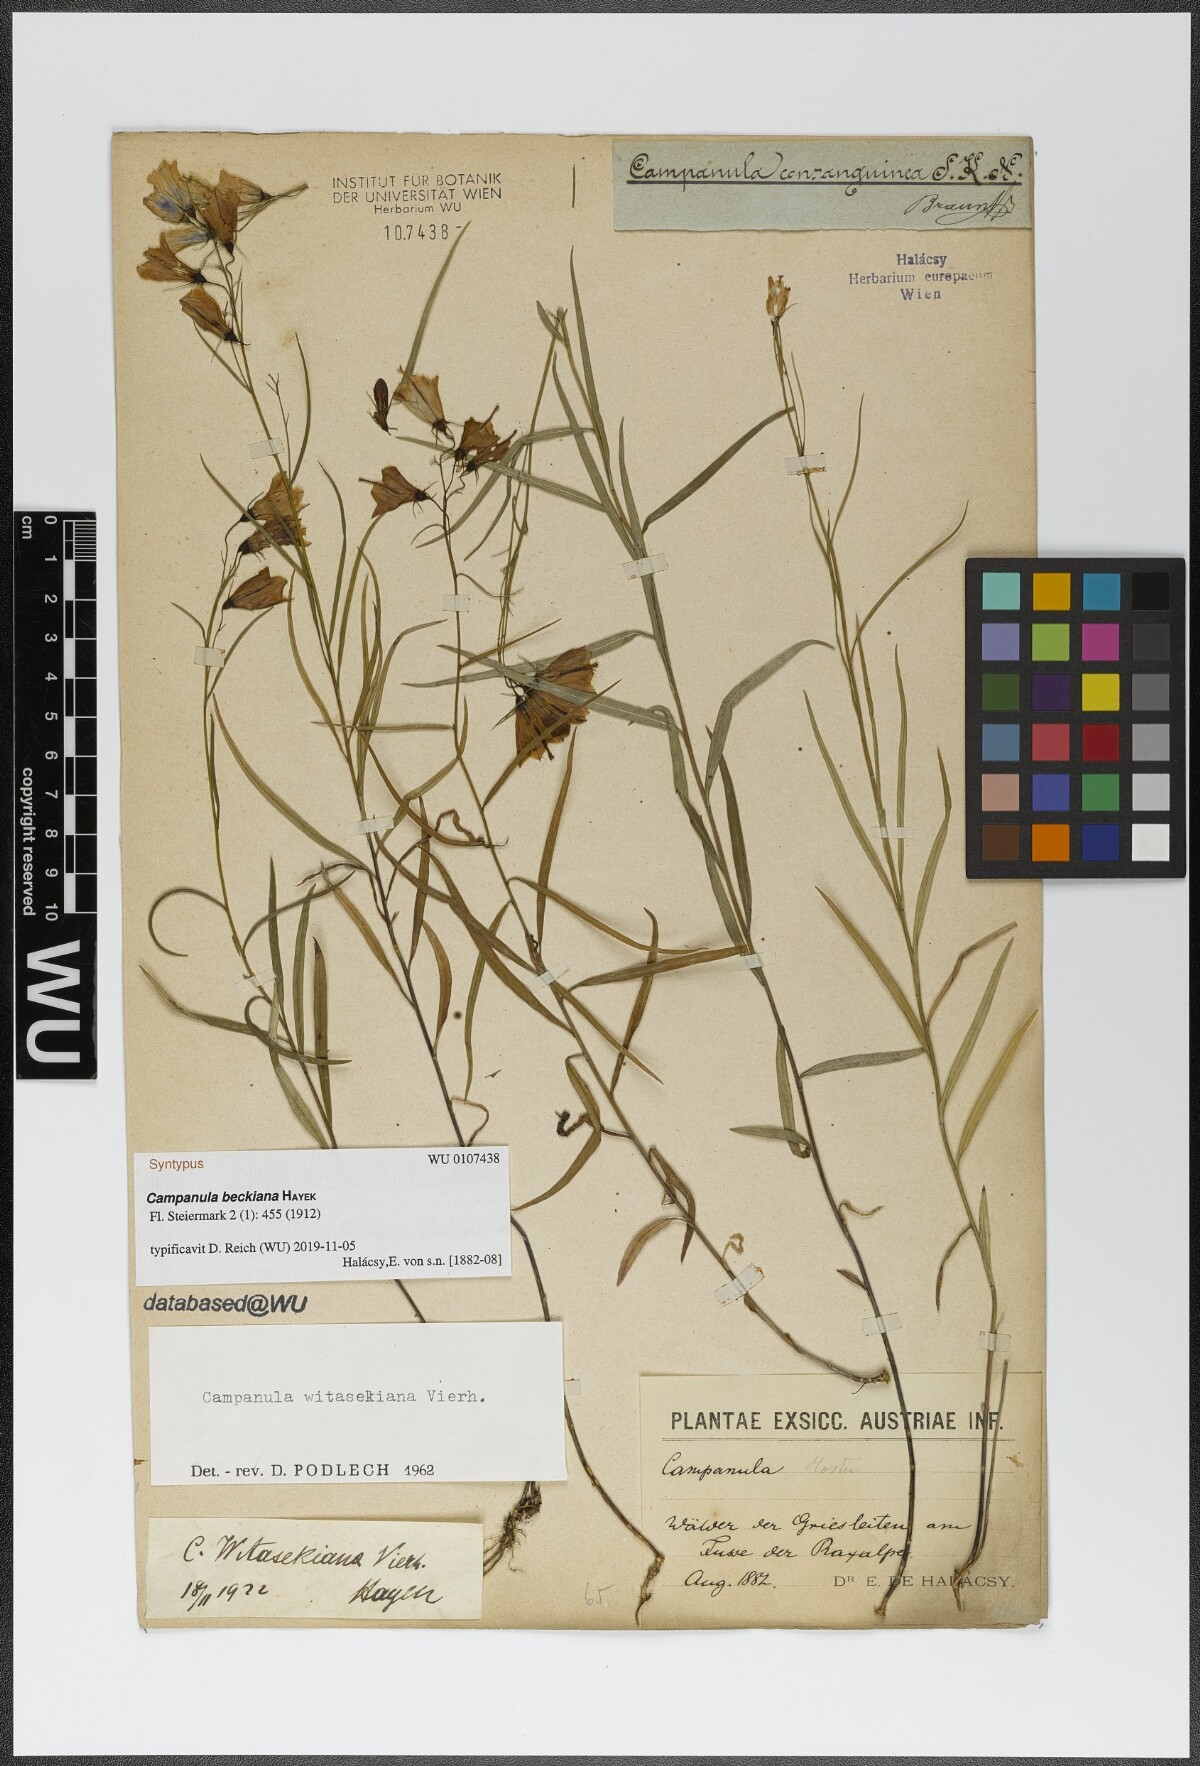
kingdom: Plantae
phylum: Tracheophyta
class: Magnoliopsida
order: Asterales
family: Campanulaceae
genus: Campanula
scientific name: Campanula baumgartenii
